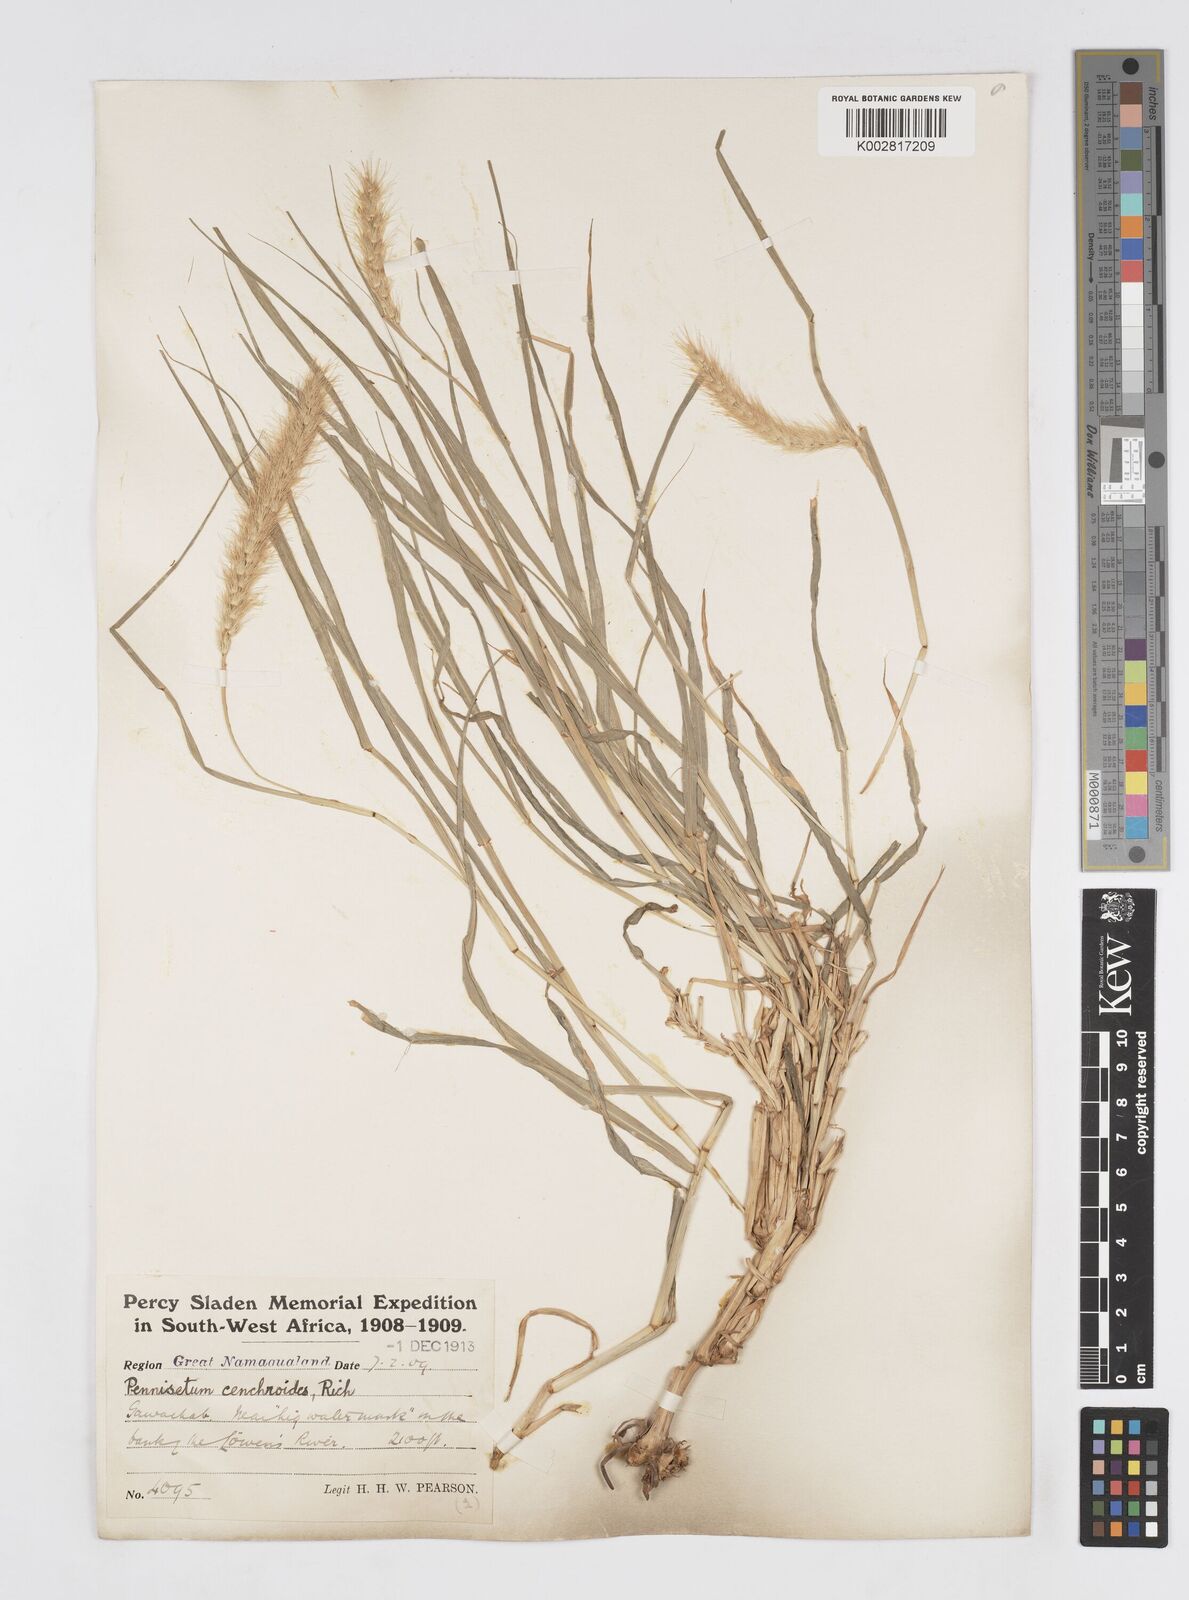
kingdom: Plantae
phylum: Tracheophyta
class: Liliopsida
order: Poales
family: Poaceae
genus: Cenchrus
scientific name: Cenchrus ciliaris
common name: Buffelgrass
